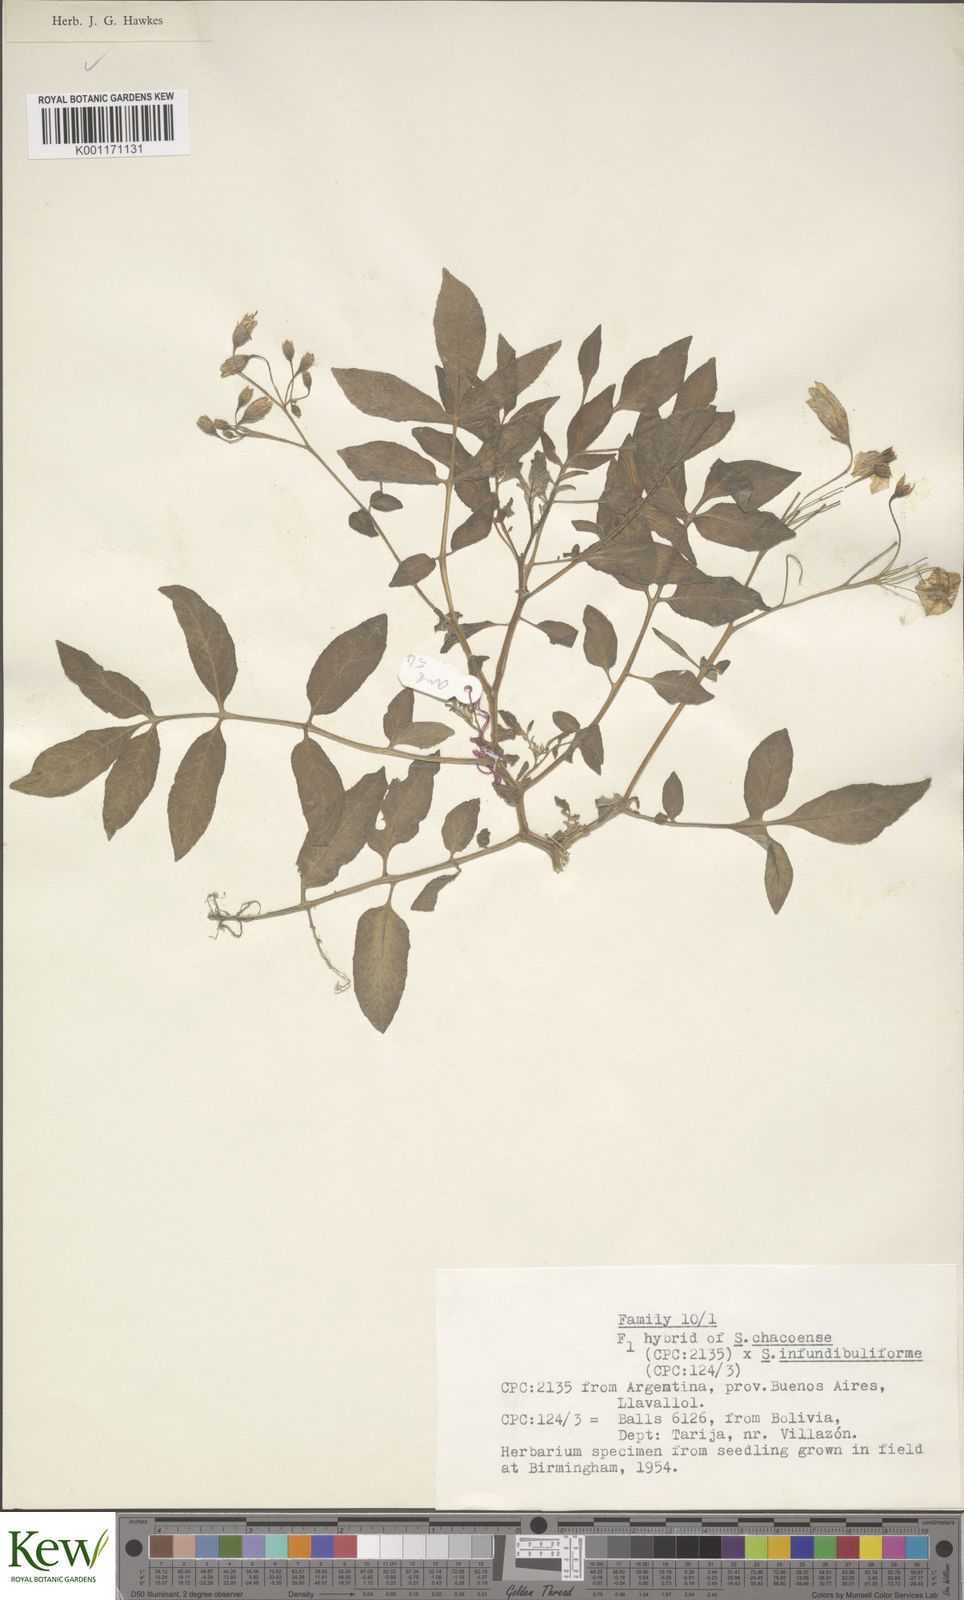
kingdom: Plantae
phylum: Tracheophyta
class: Magnoliopsida
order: Solanales
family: Solanaceae
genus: Solanum
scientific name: Solanum chacoense
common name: Chaco potato
